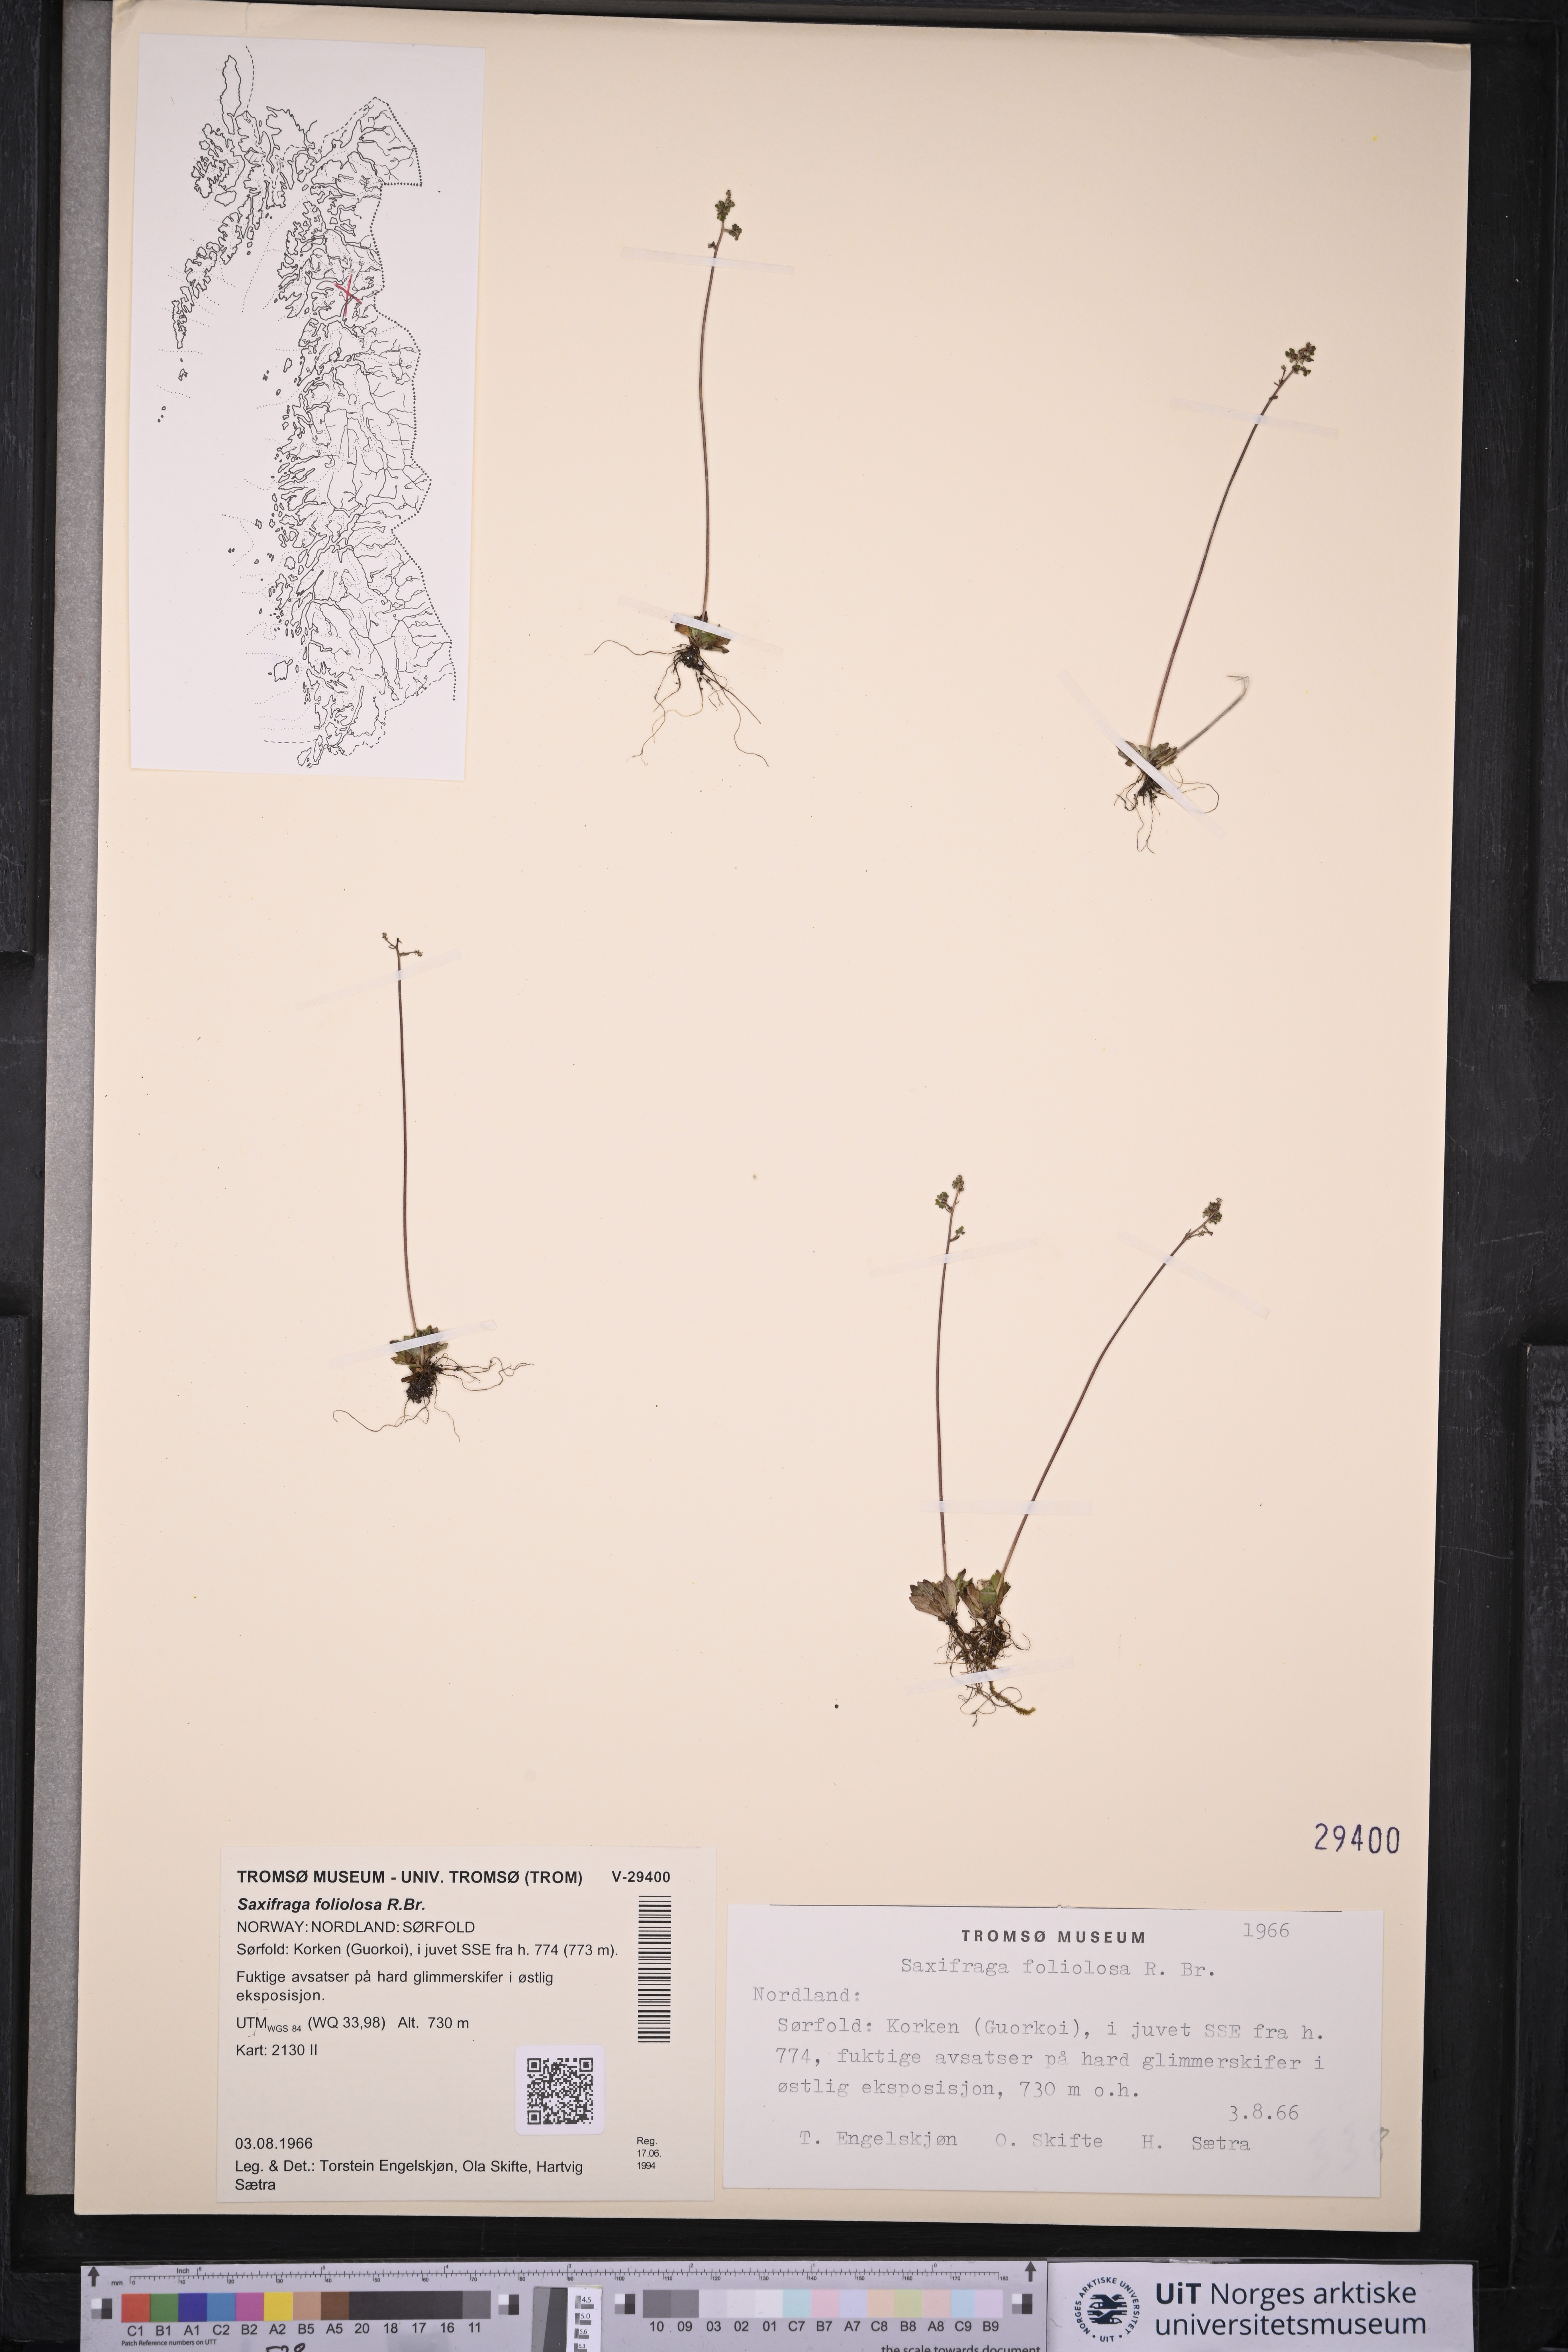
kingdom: Plantae
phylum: Tracheophyta
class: Magnoliopsida
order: Saxifragales
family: Saxifragaceae
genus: Micranthes
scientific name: Micranthes foliolosa
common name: Leafystem saxifrage
